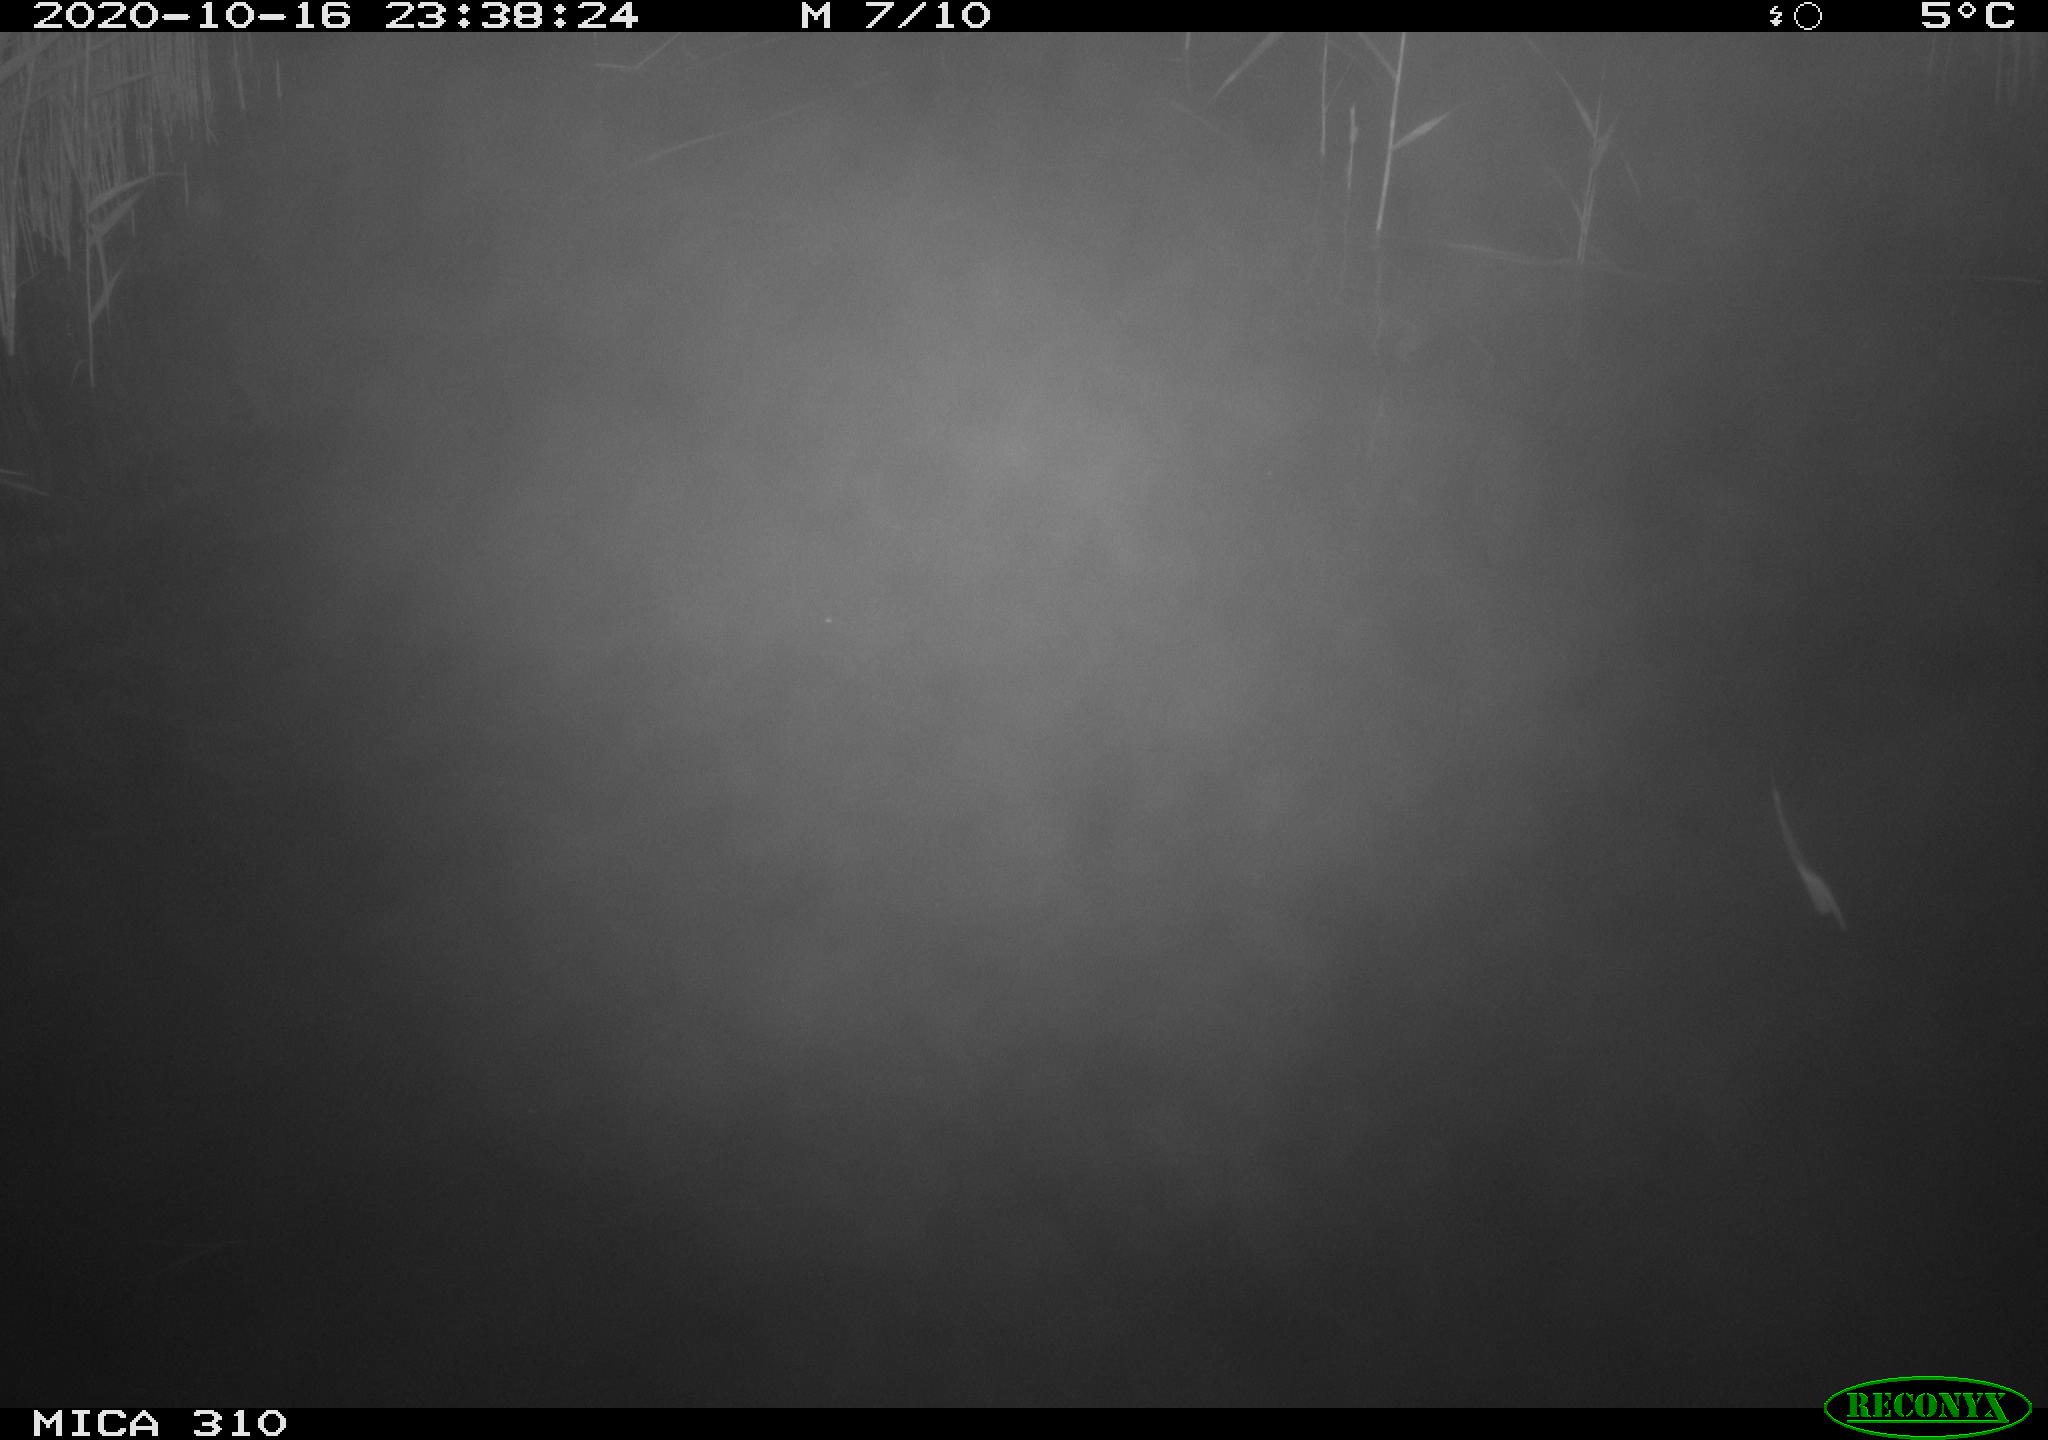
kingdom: Animalia
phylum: Chordata
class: Mammalia
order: Rodentia
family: Cricetidae
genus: Ondatra
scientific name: Ondatra zibethicus
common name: Muskrat
